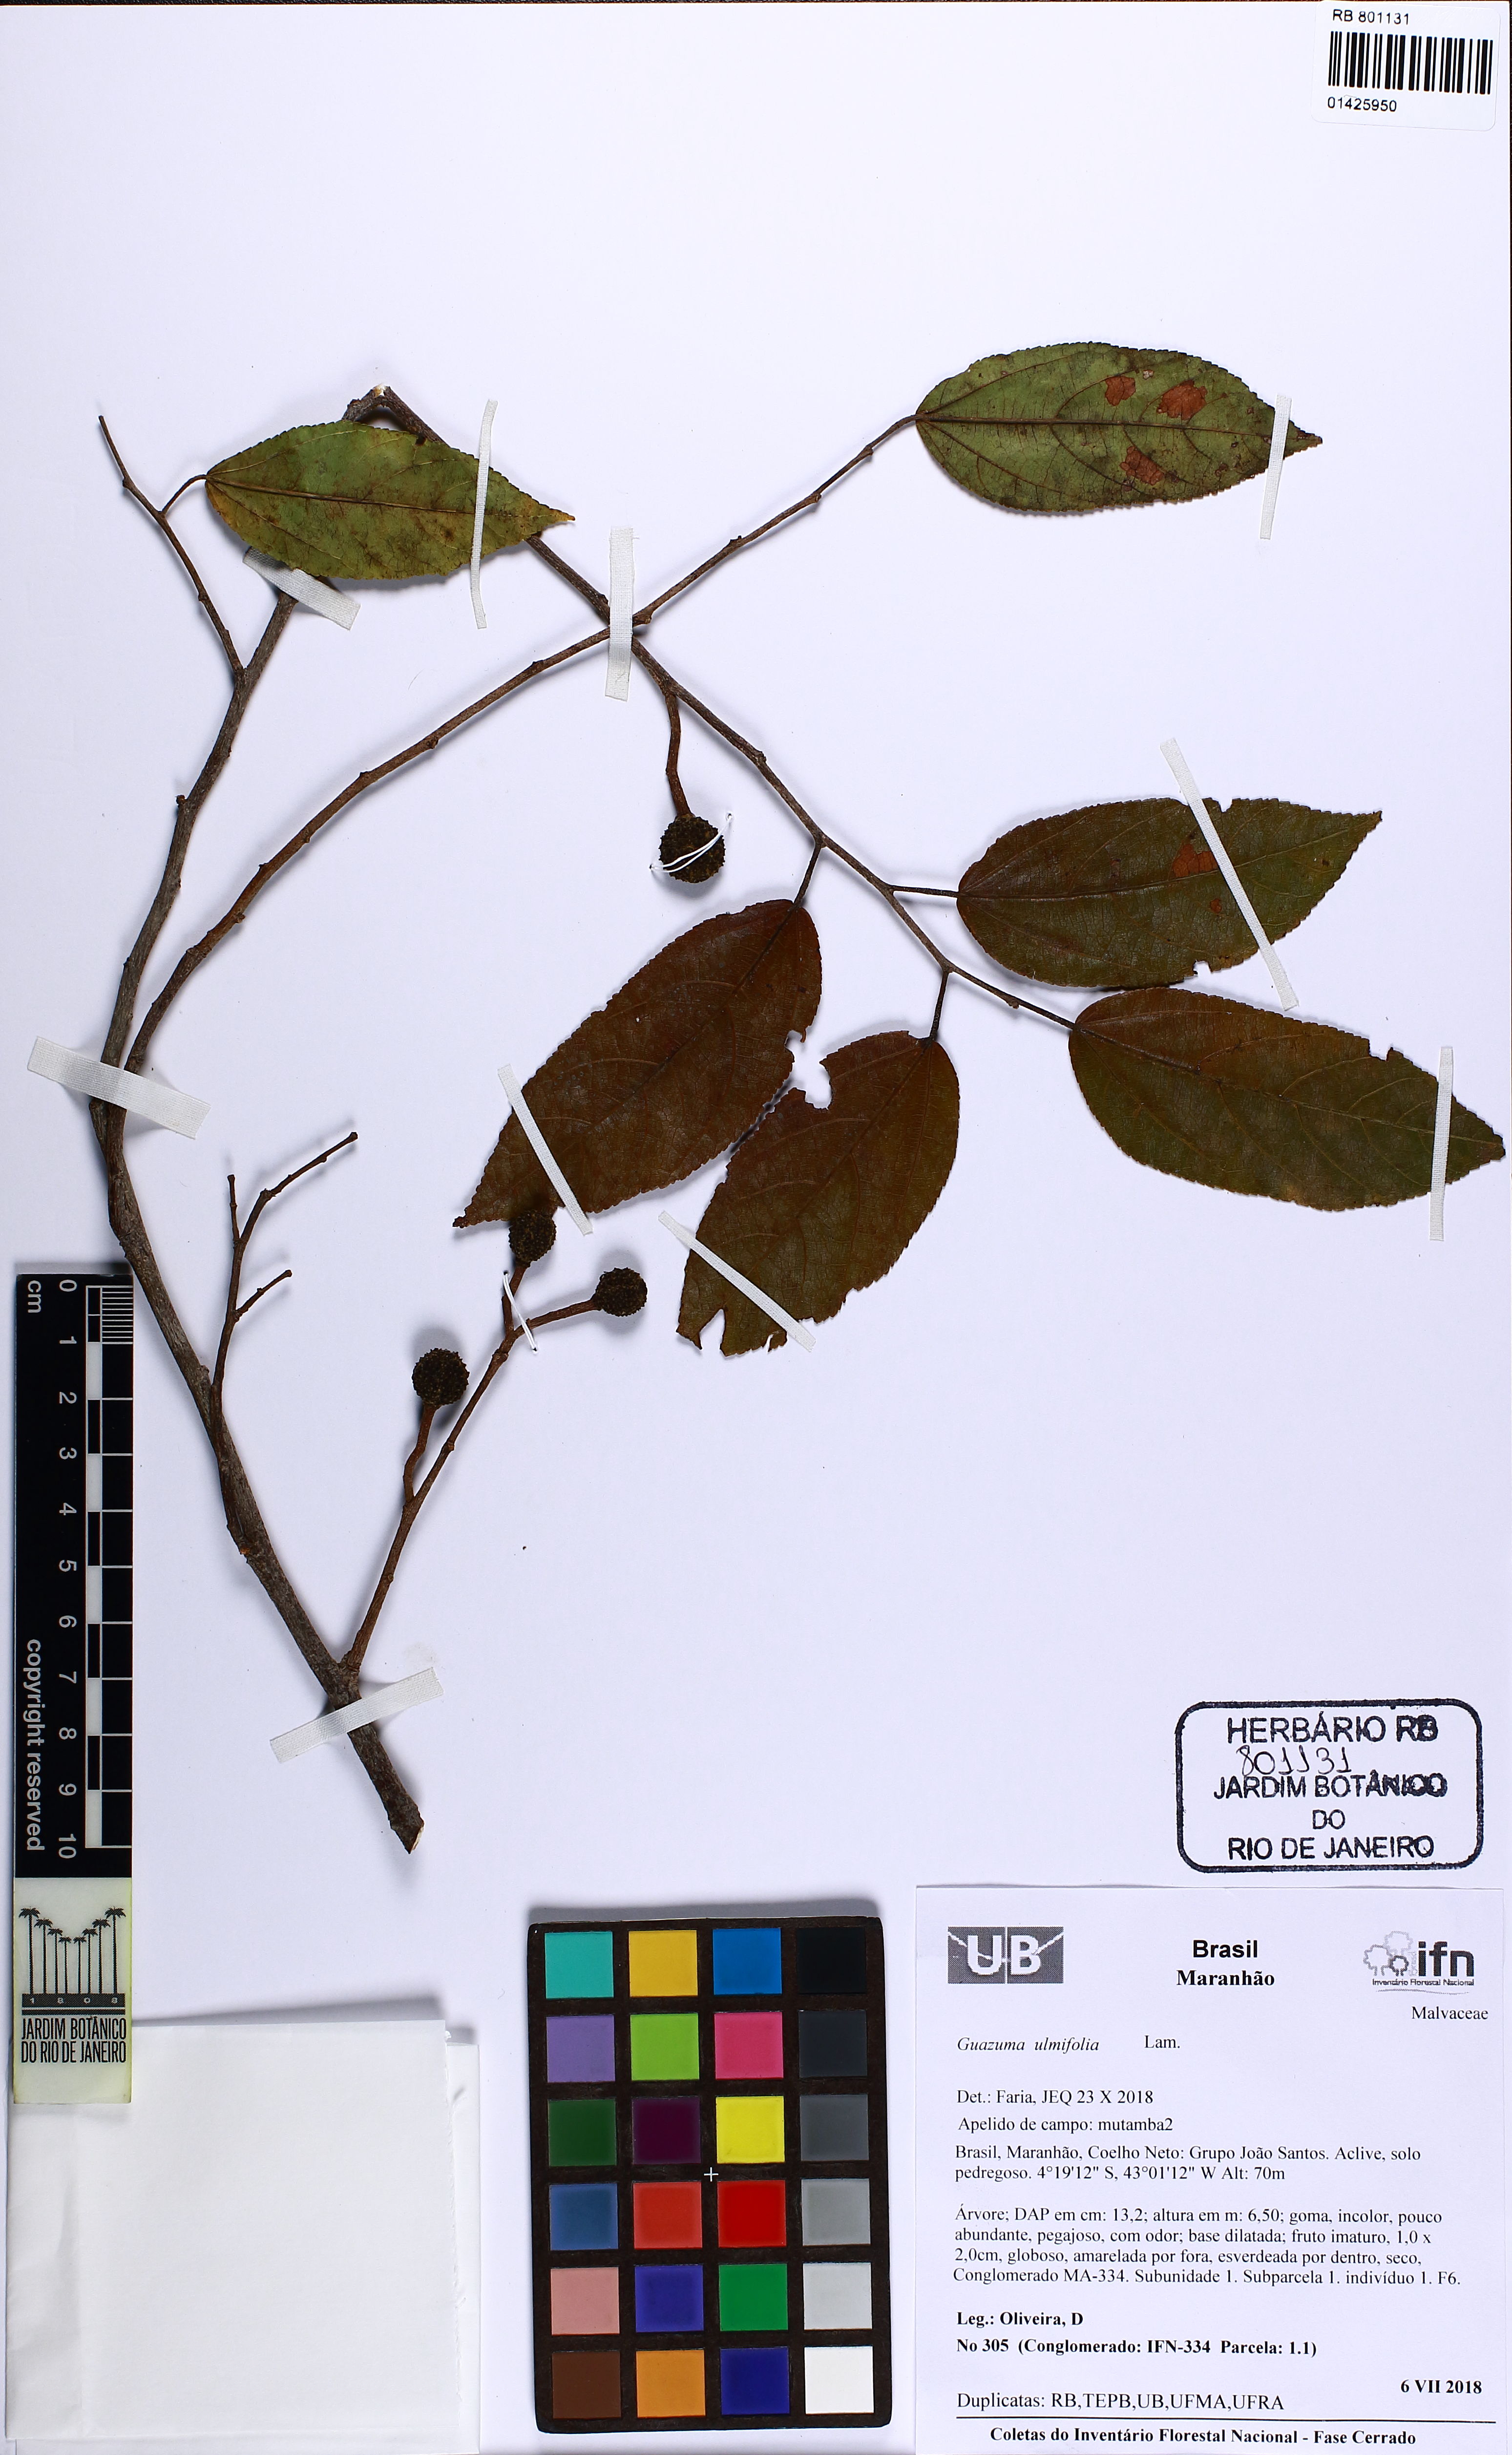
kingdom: Plantae
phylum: Tracheophyta
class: Magnoliopsida
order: Malvales
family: Malvaceae
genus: Guazuma
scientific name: Guazuma ulmifolia
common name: Bastard-cedar
